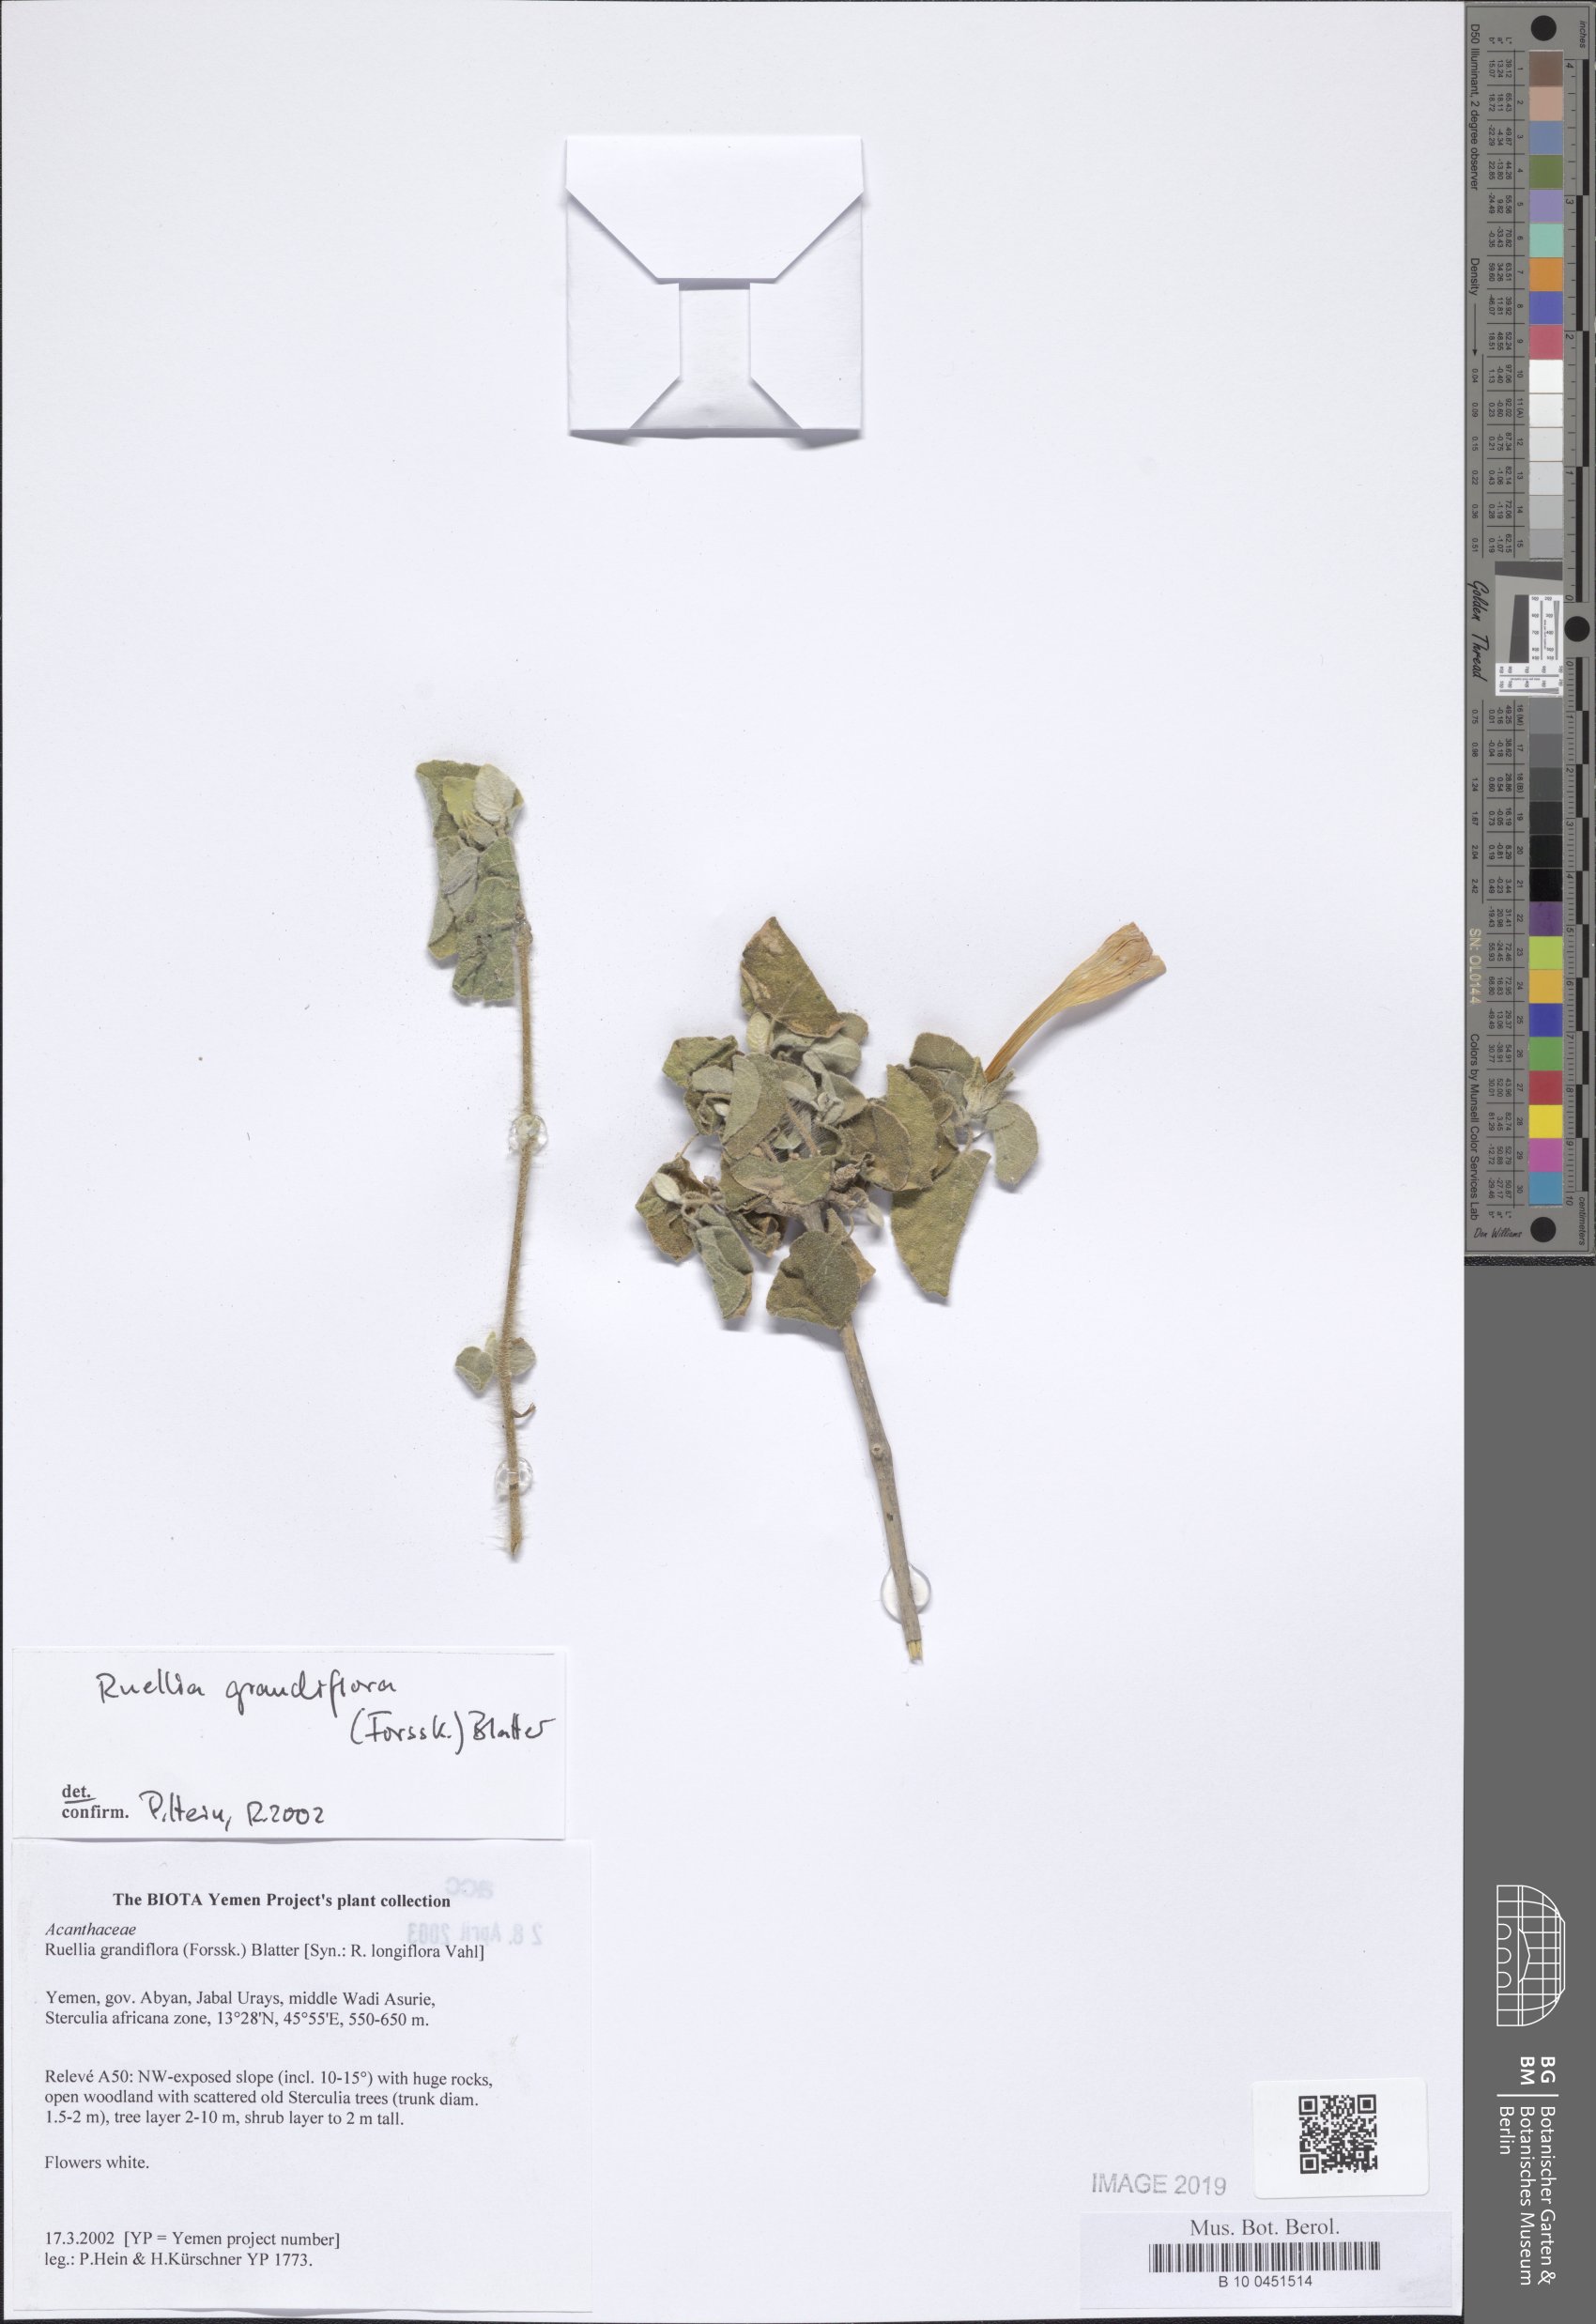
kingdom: Plantae
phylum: Tracheophyta
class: Magnoliopsida
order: Lamiales
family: Acanthaceae
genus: Ruellia
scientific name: Ruellia grandiflora
